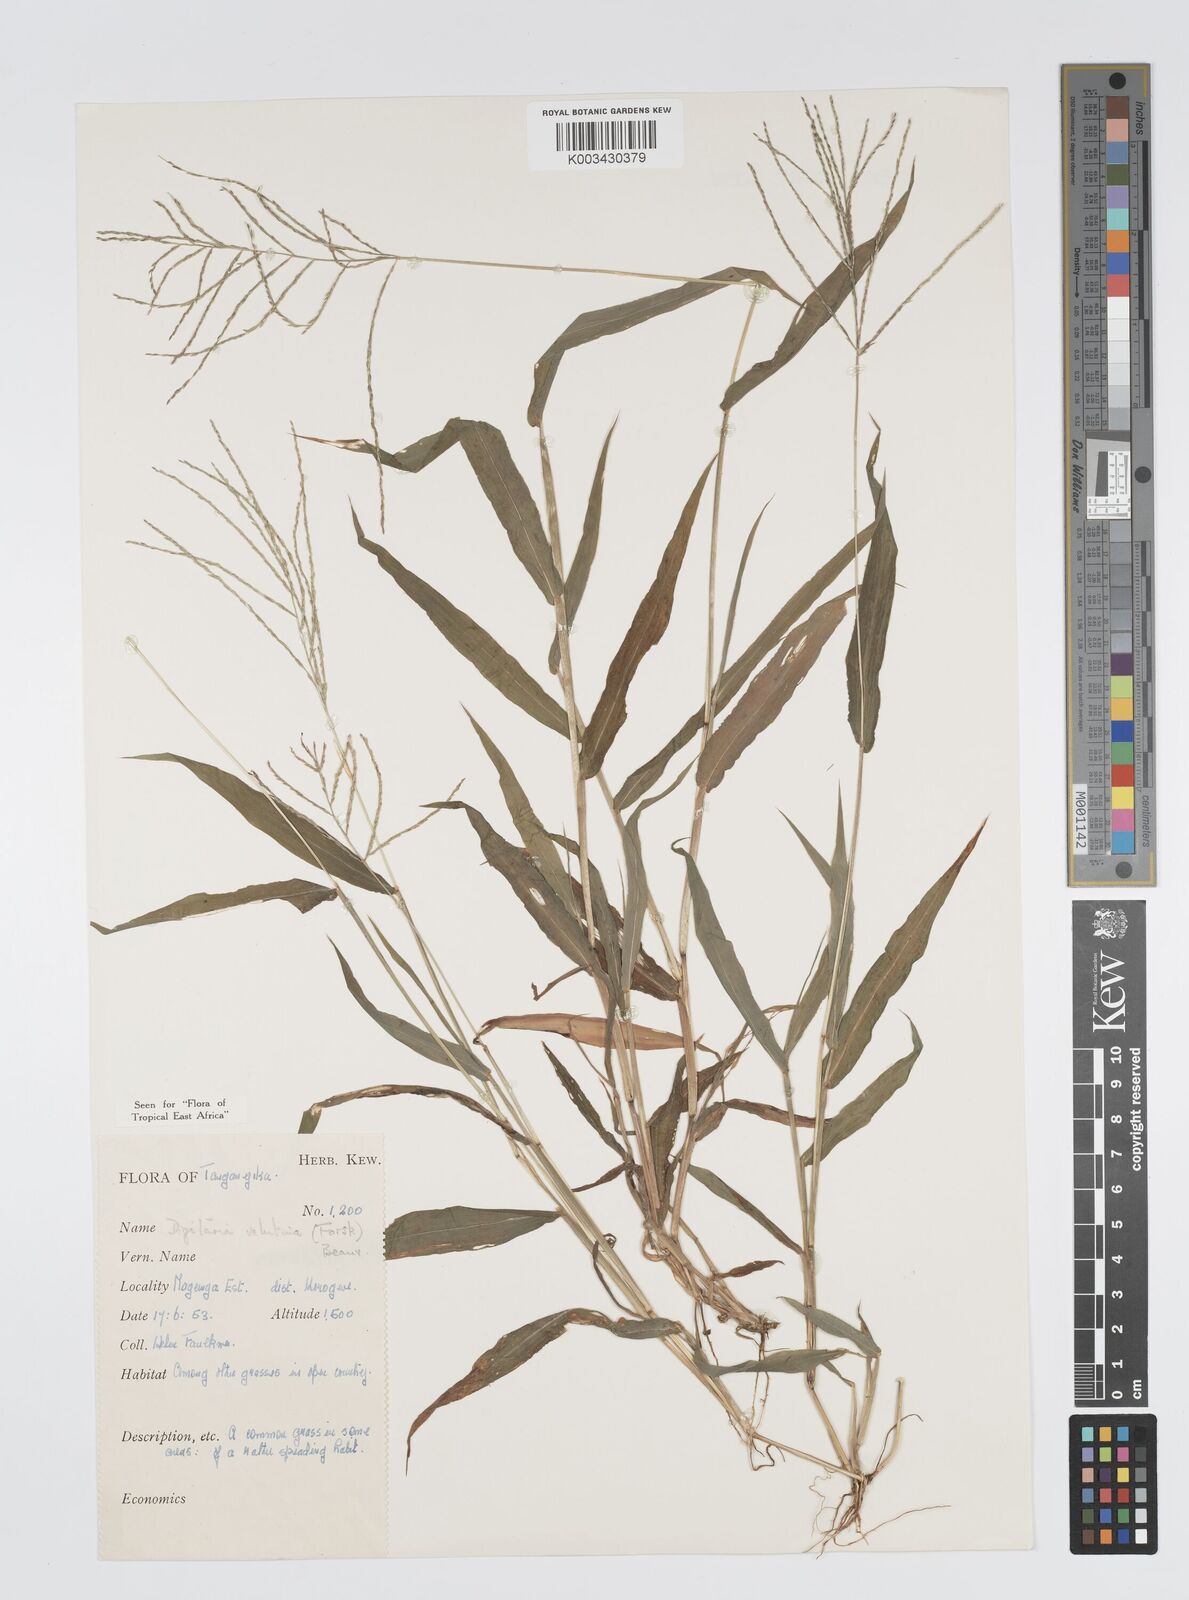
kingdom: Plantae
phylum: Tracheophyta
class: Liliopsida
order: Poales
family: Poaceae
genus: Digitaria
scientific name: Digitaria velutina
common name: Long-plume finger grass
